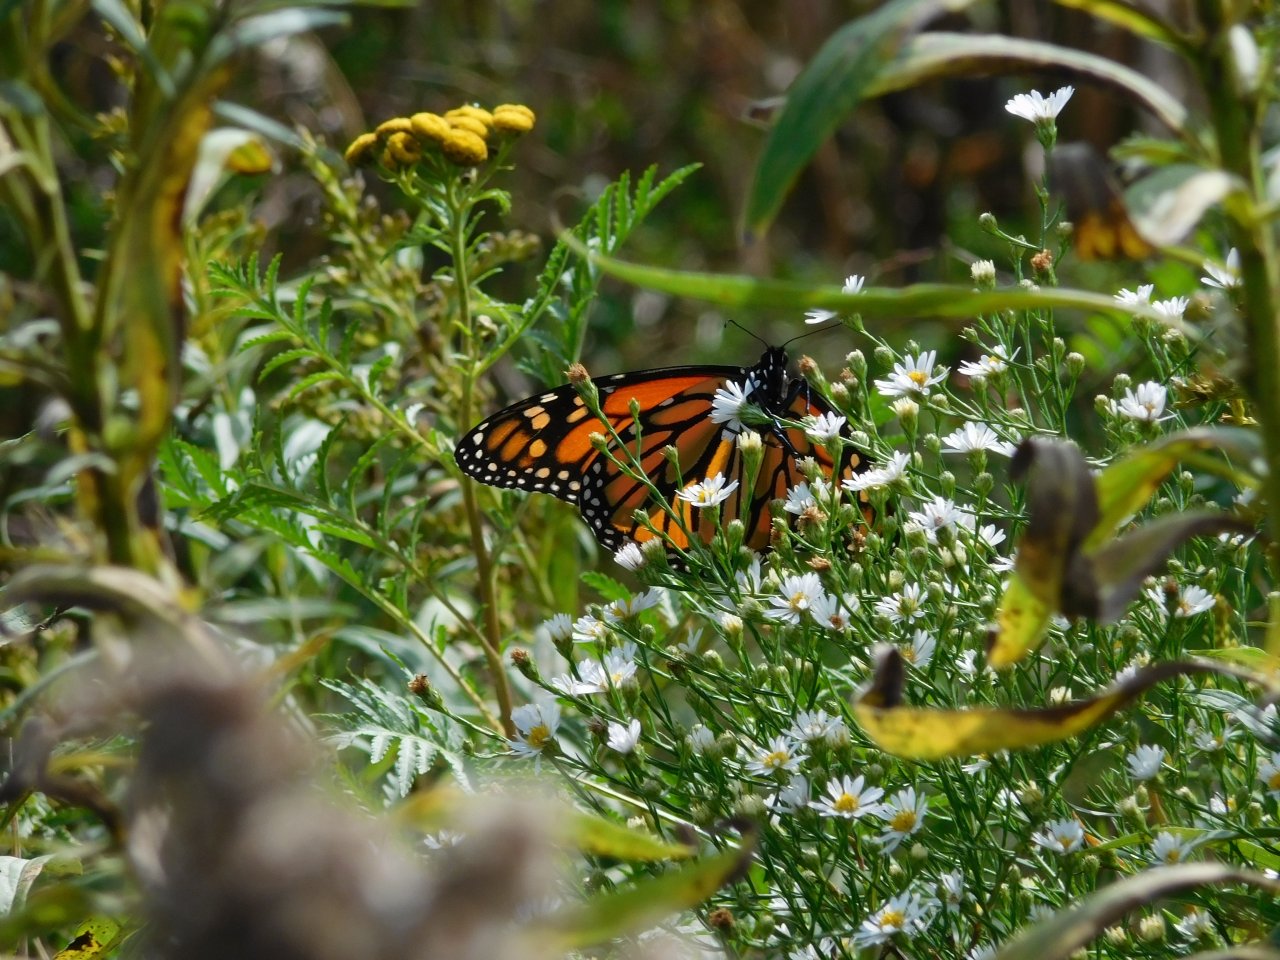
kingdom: Animalia
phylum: Arthropoda
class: Insecta
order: Lepidoptera
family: Nymphalidae
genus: Danaus
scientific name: Danaus plexippus
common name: Monarch
